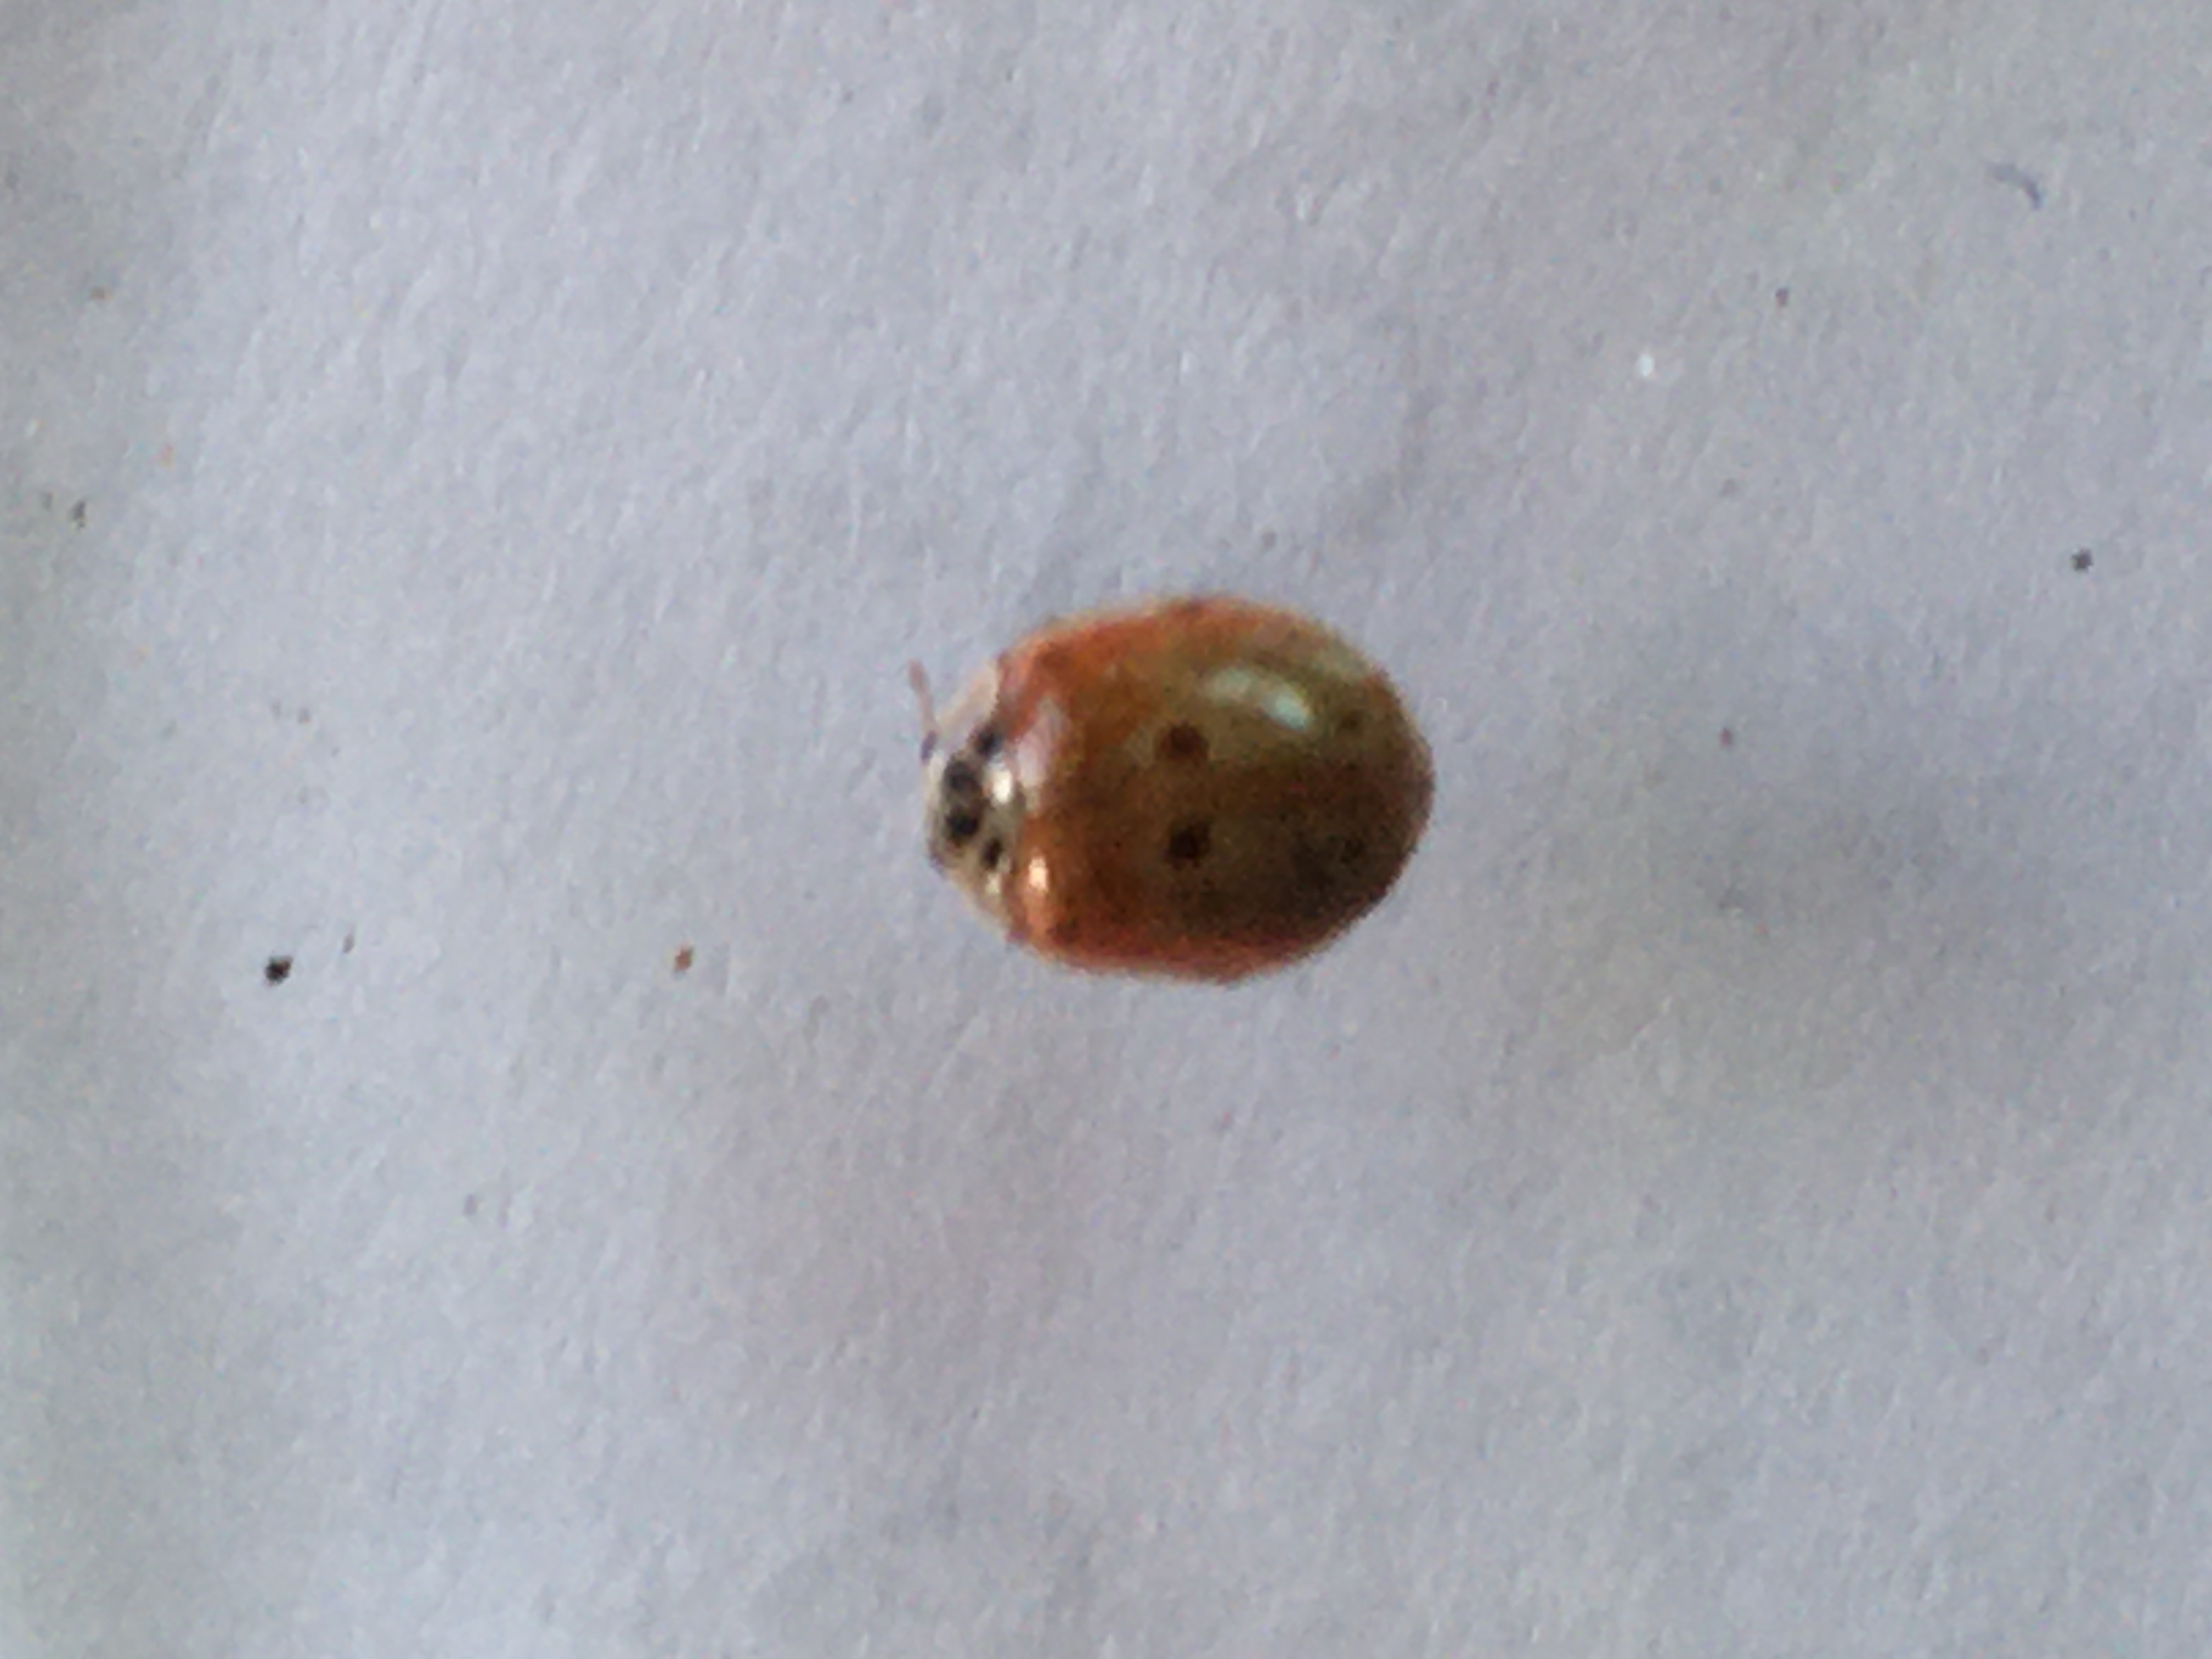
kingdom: Animalia
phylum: Arthropoda
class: Insecta
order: Coleoptera
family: Coccinellidae
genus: Adalia
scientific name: Adalia decempunctata
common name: Tiplettet mariehøne
